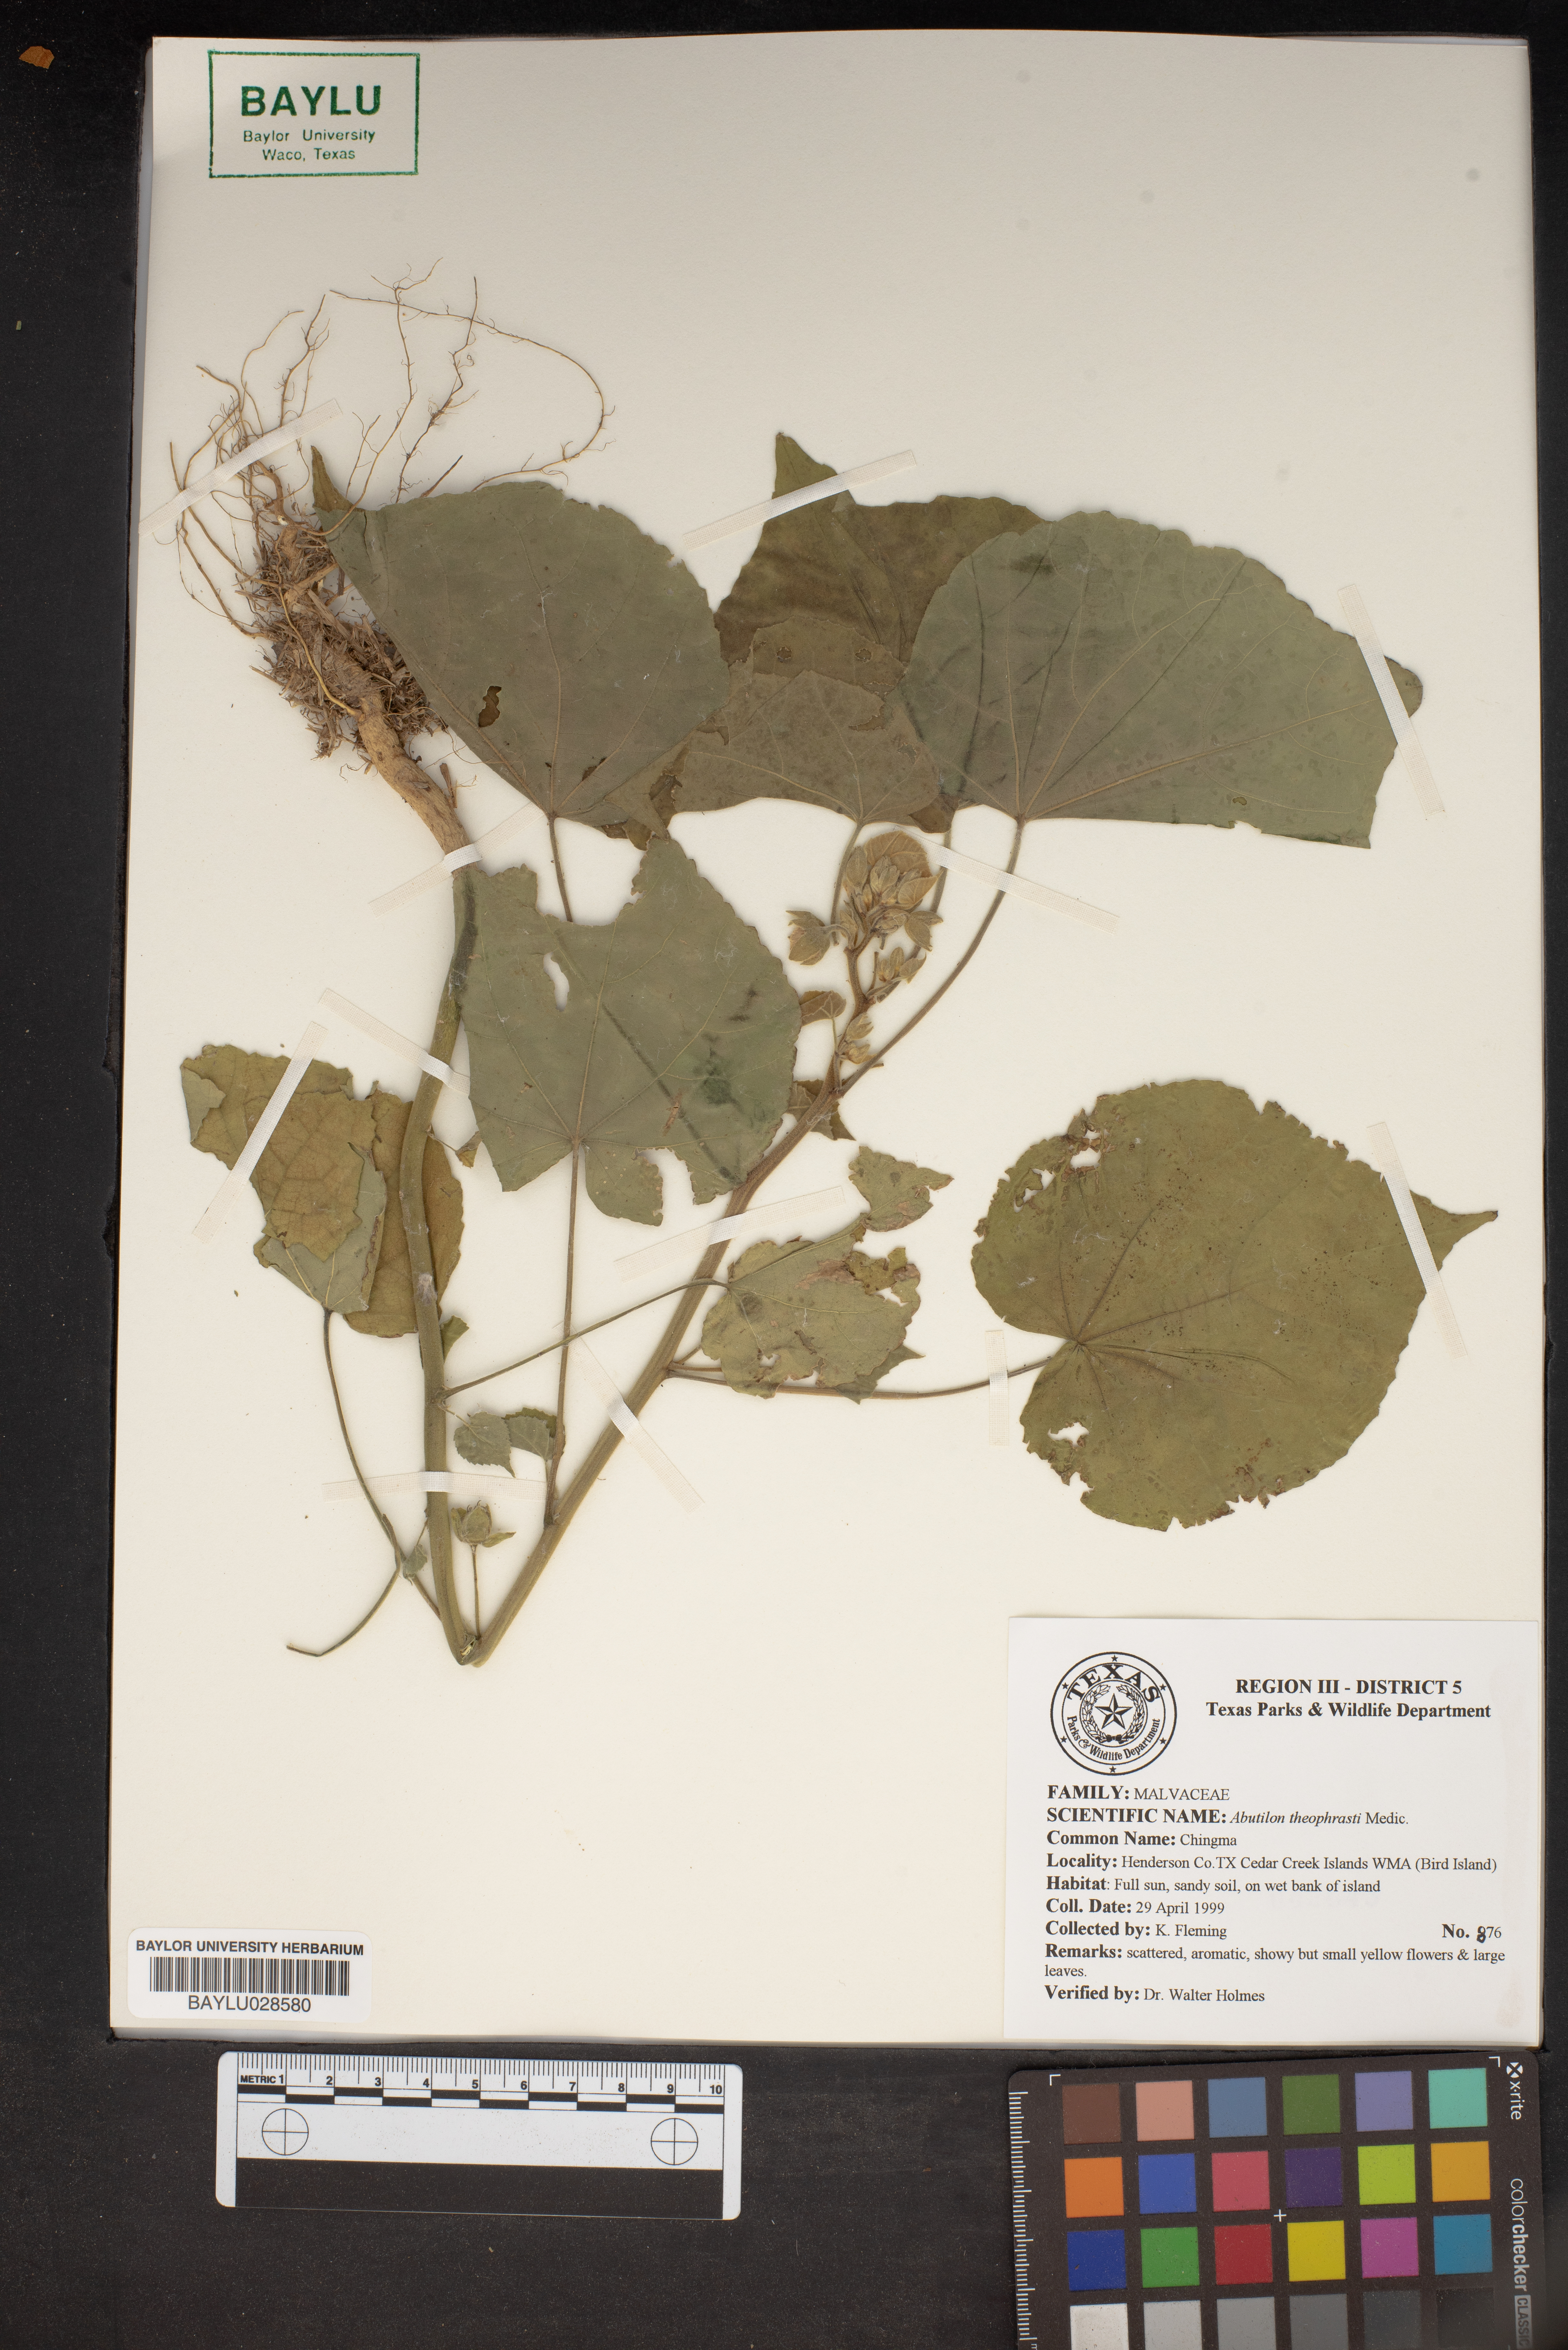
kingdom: Plantae
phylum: Tracheophyta
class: Magnoliopsida
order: Malvales
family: Malvaceae
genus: Abutilon
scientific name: Abutilon theophrasti
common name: Velvetleaf
